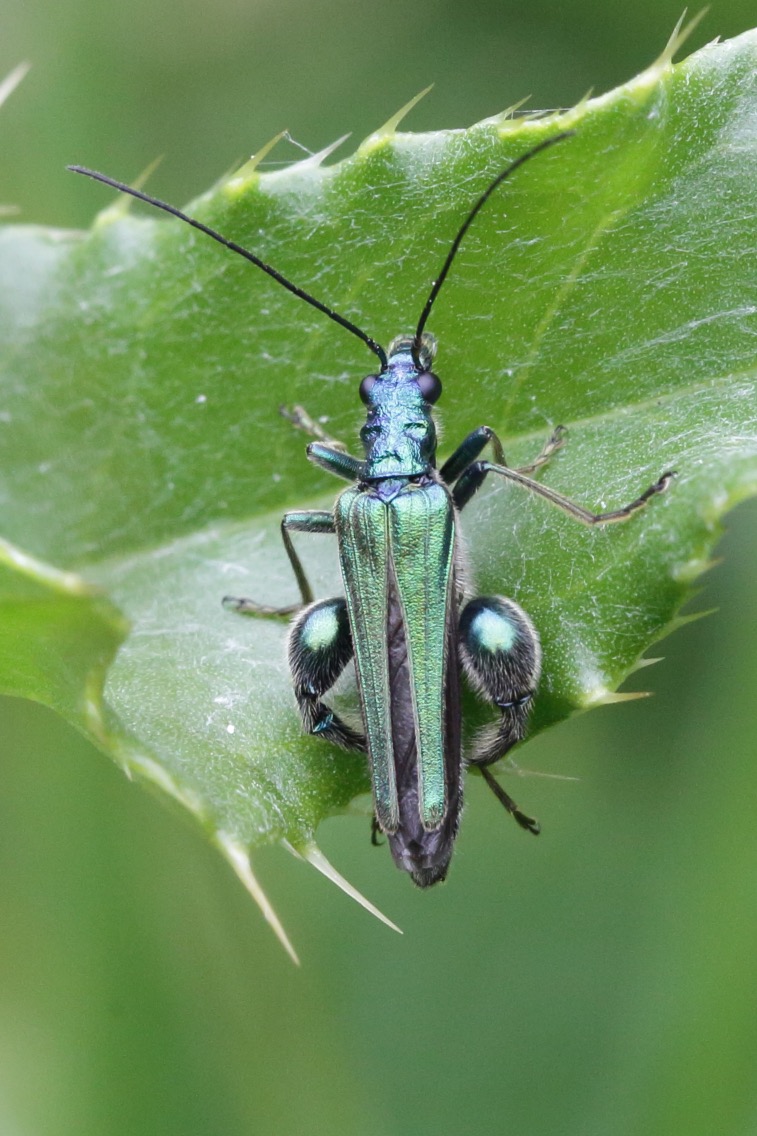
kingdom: Animalia
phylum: Arthropoda
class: Insecta
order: Coleoptera
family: Oedemeridae
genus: Oedemera
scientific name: Oedemera nobilis
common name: Tyklårssolbille
